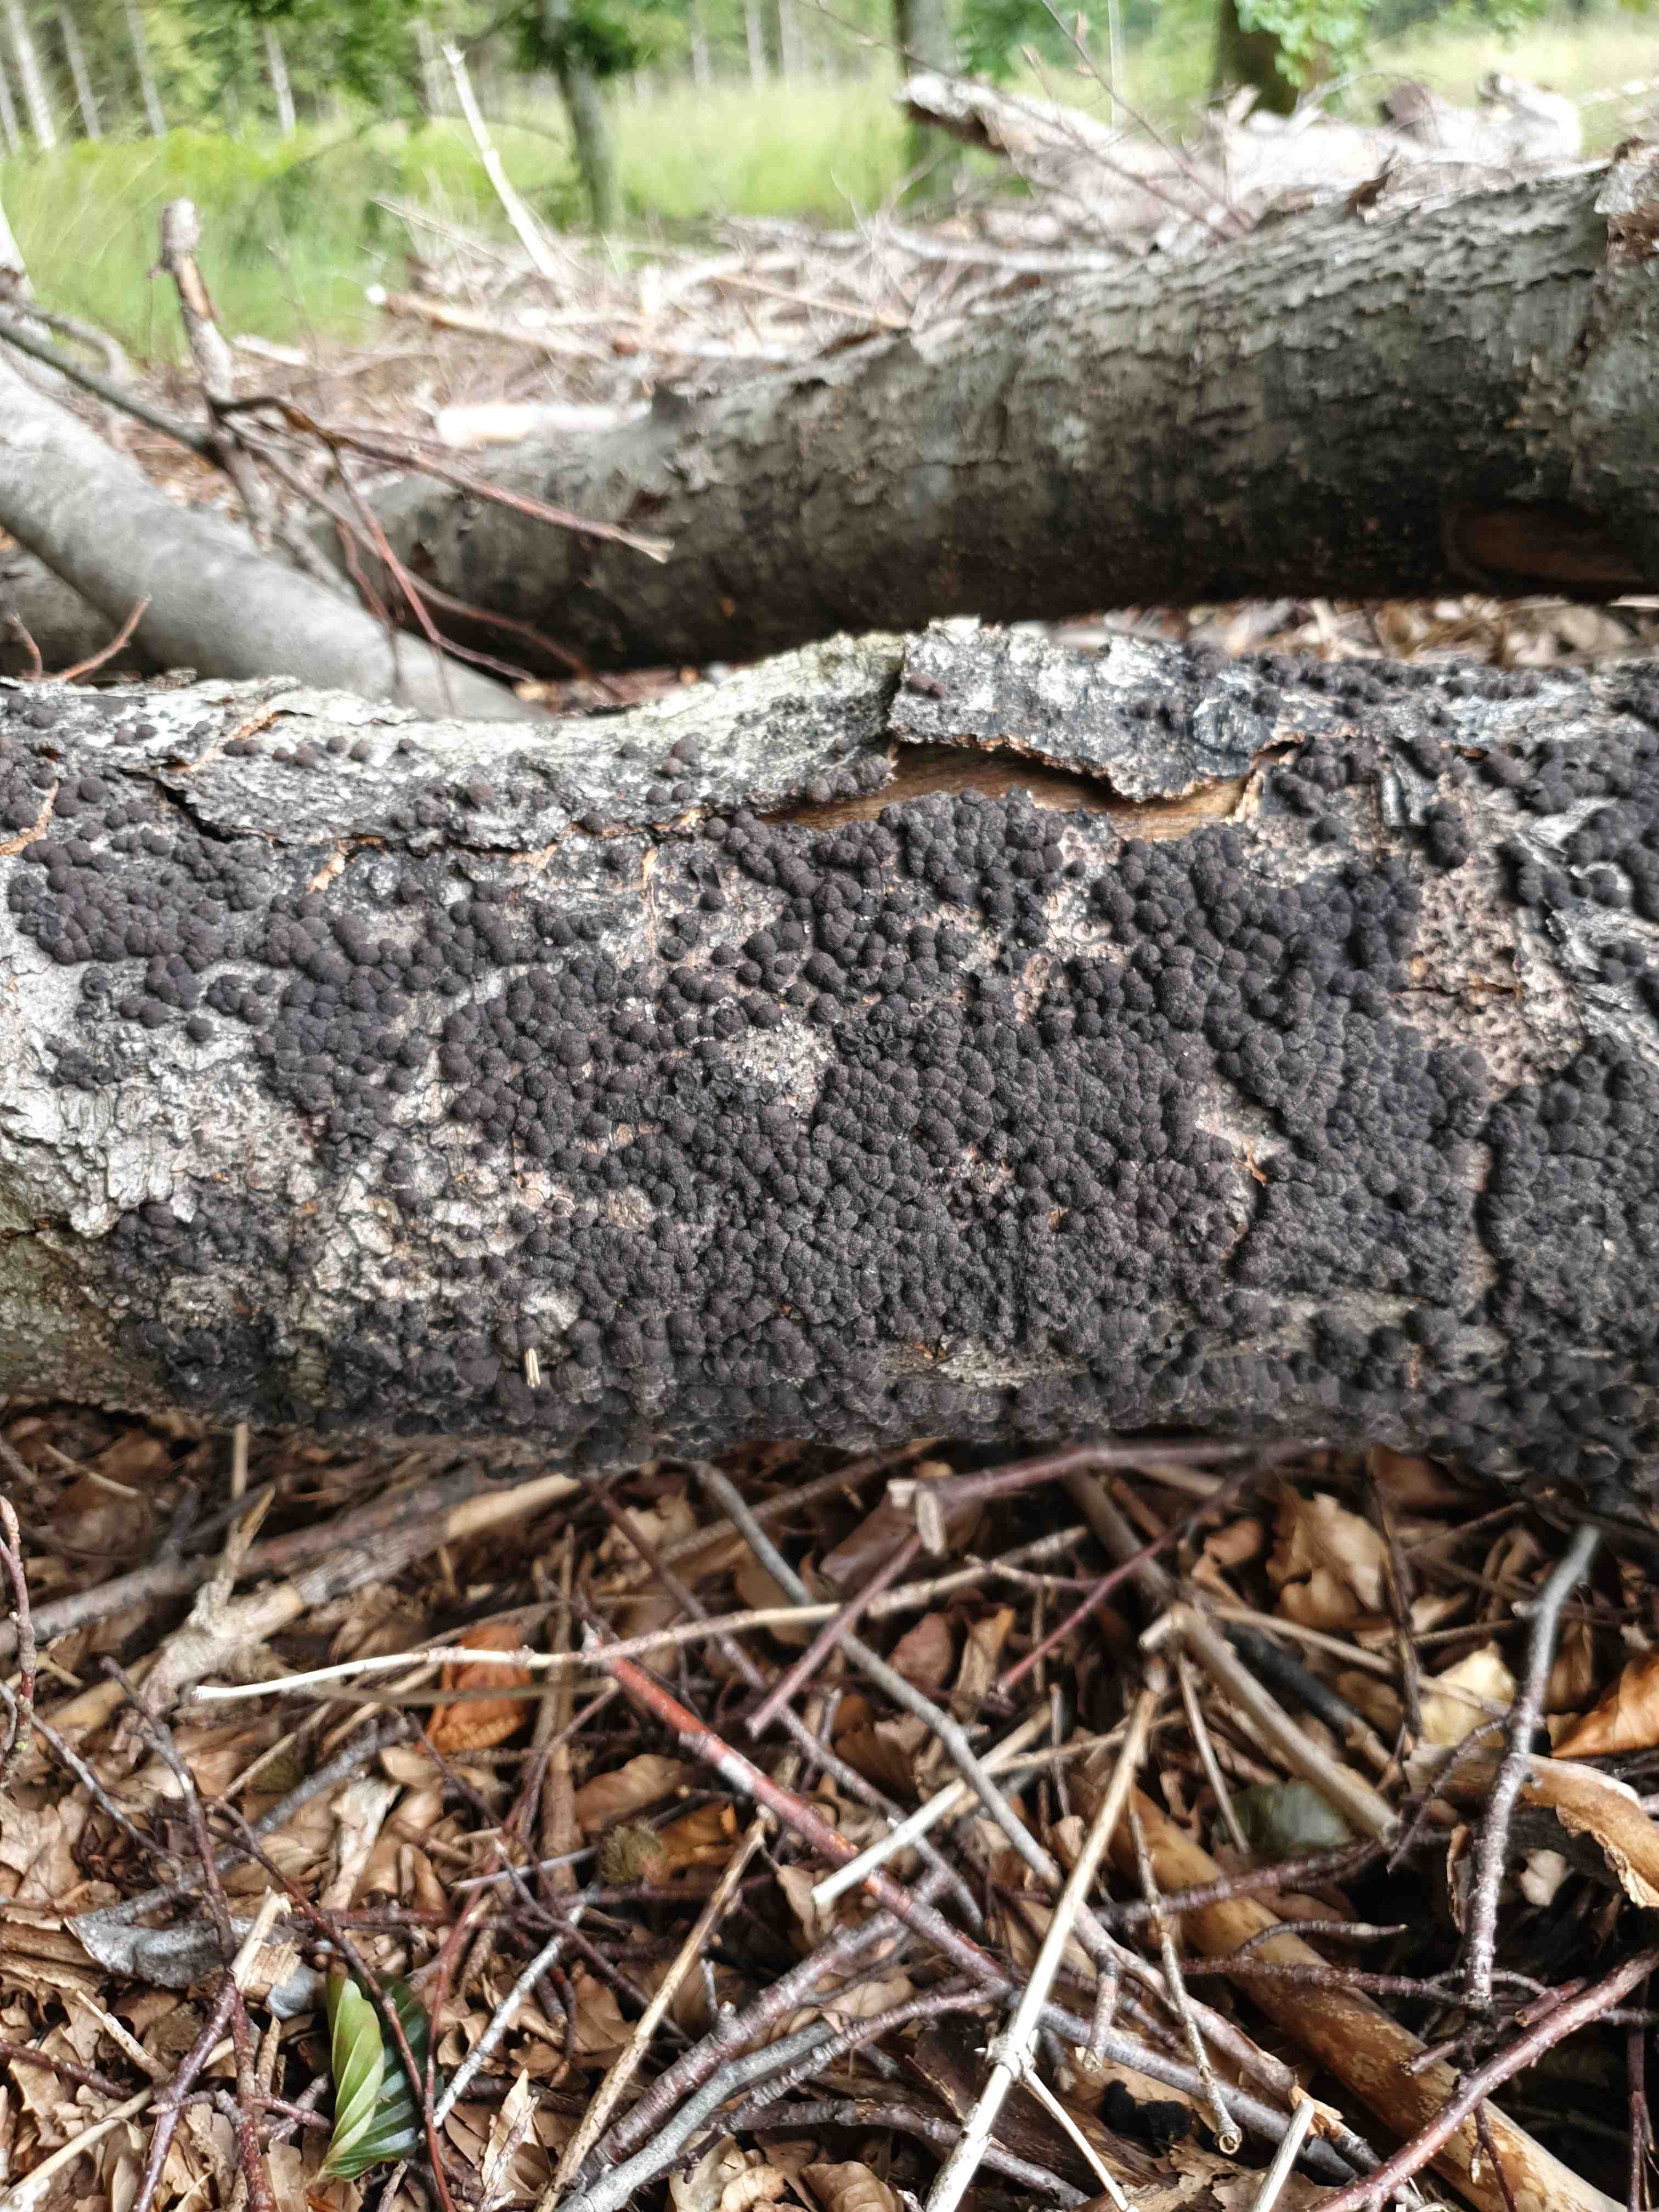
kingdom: Fungi
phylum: Ascomycota
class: Sordariomycetes
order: Xylariales
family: Hypoxylaceae
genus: Hypoxylon
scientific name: Hypoxylon fragiforme
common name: kuljordbær
